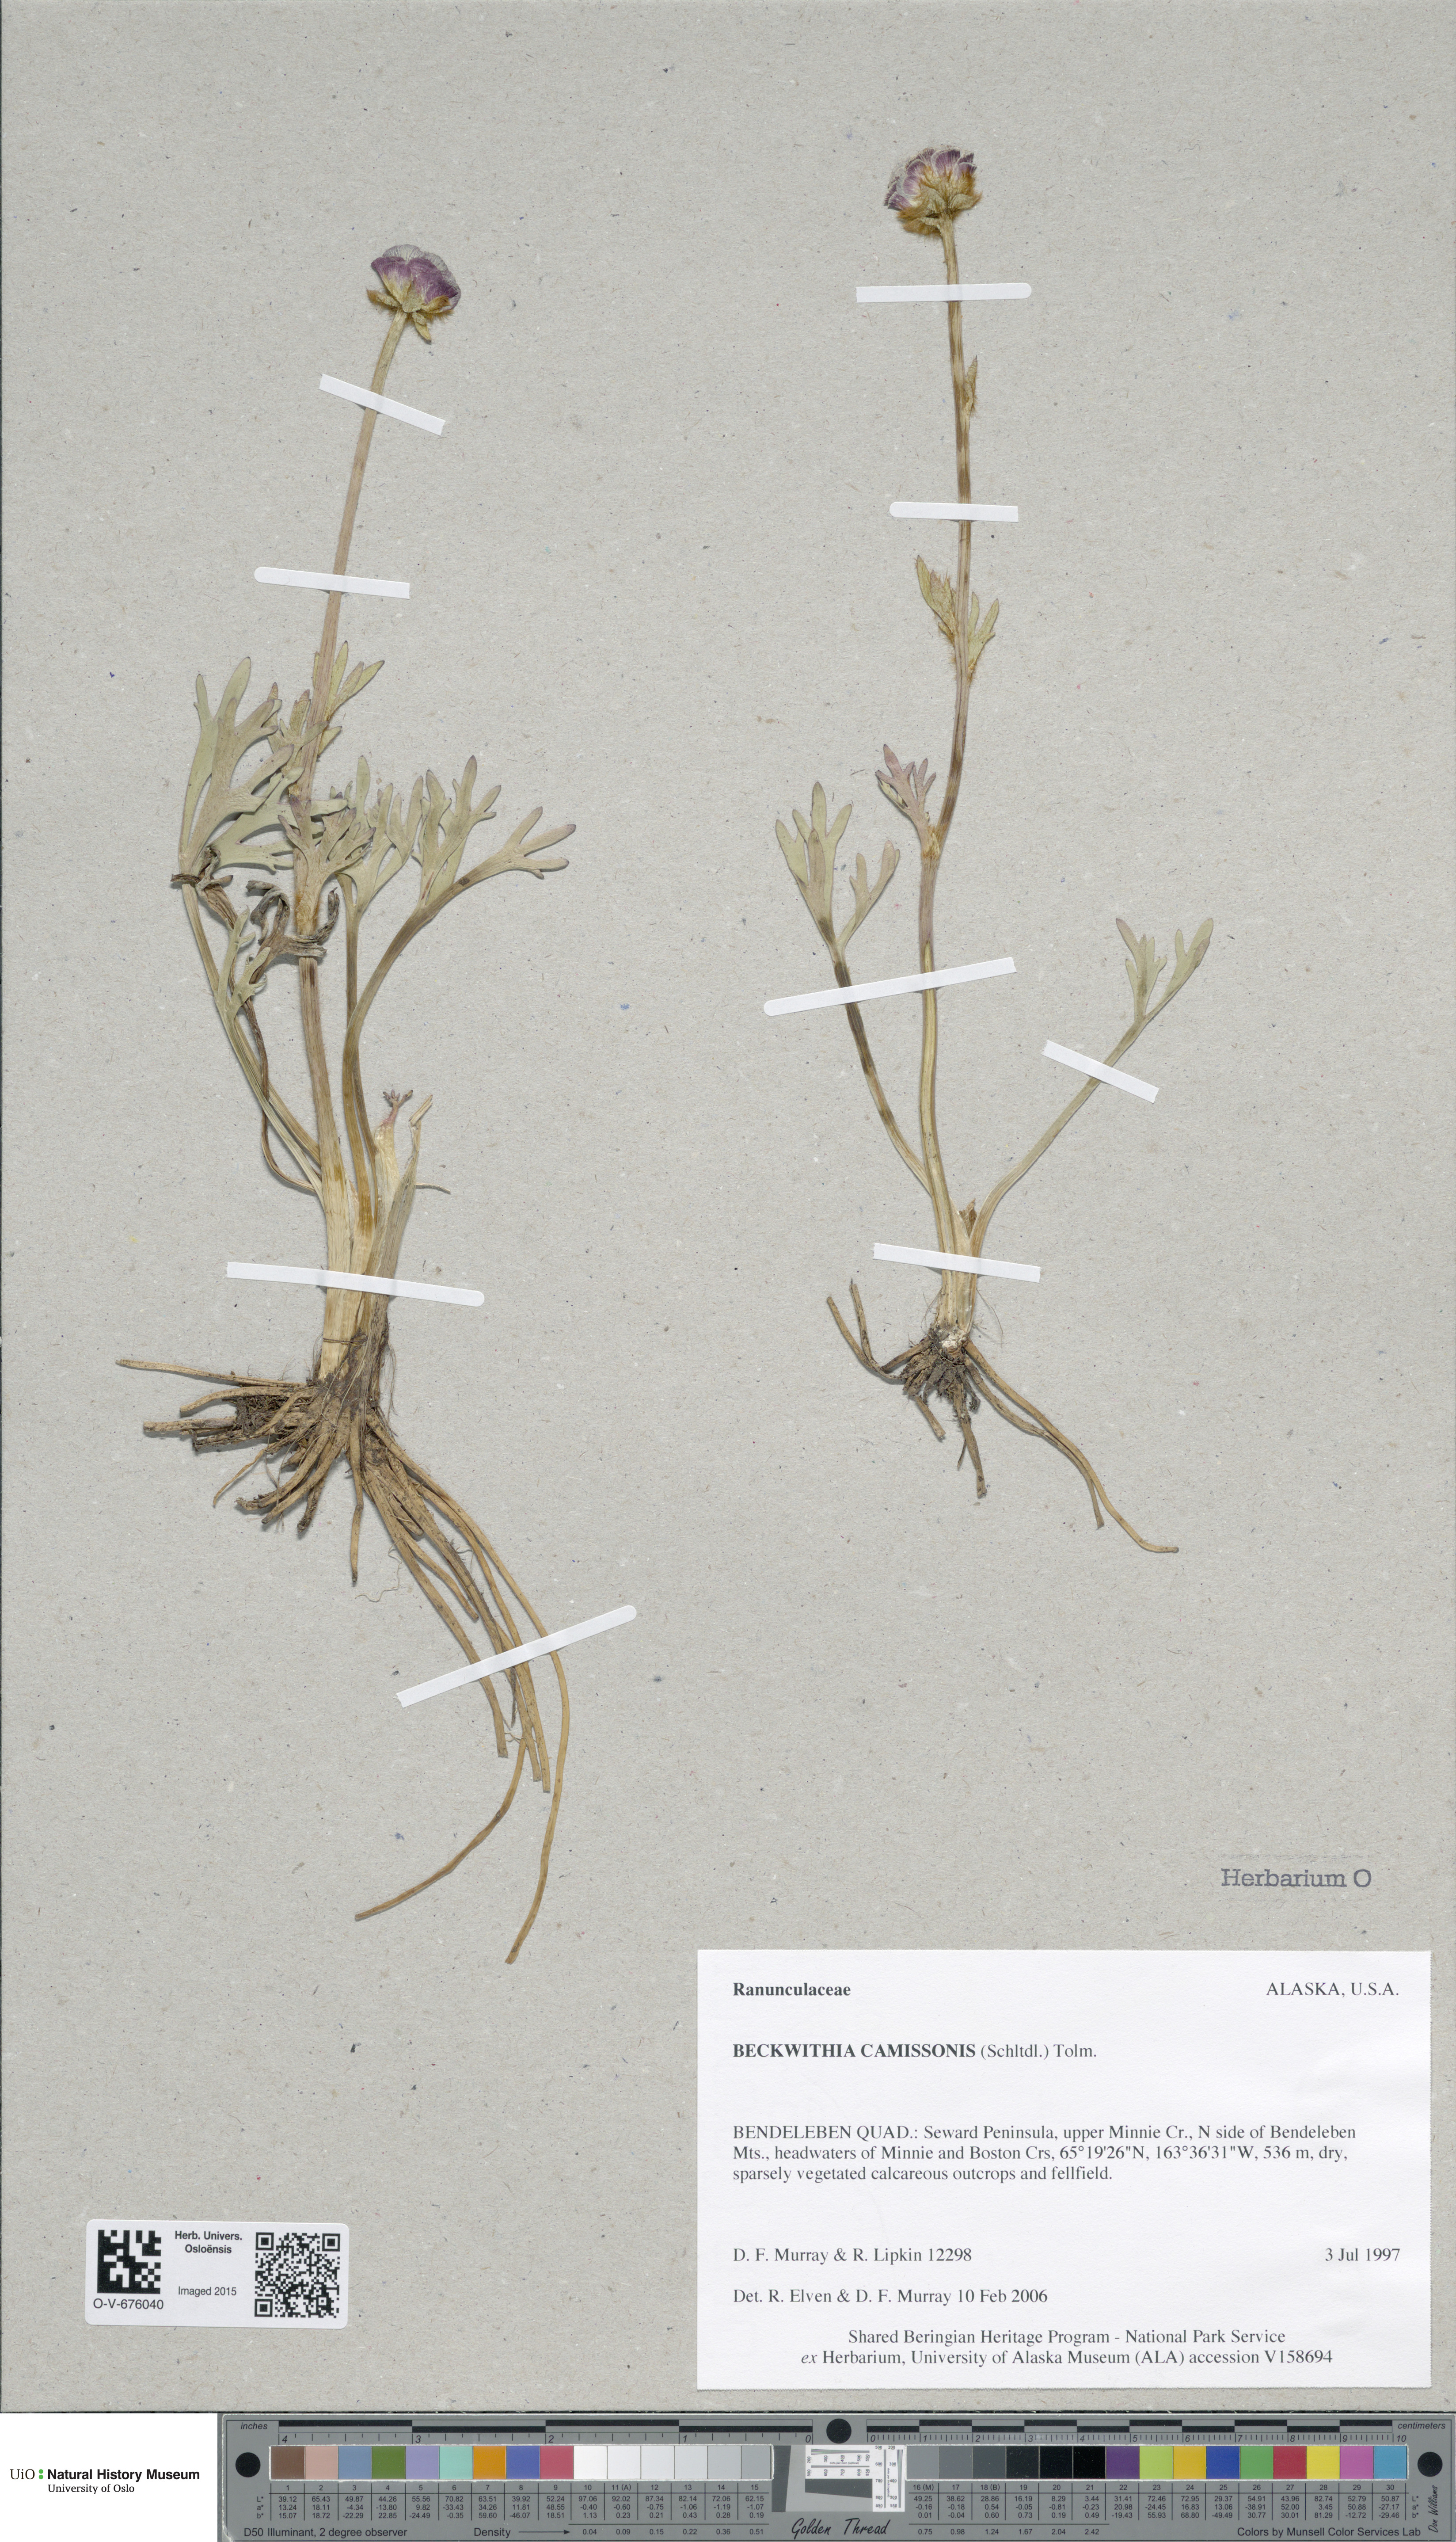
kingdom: Plantae
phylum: Tracheophyta
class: Magnoliopsida
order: Ranunculales
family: Ranunculaceae
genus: Ranunculus
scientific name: Ranunculus glacialis
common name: Glacier buttercup
